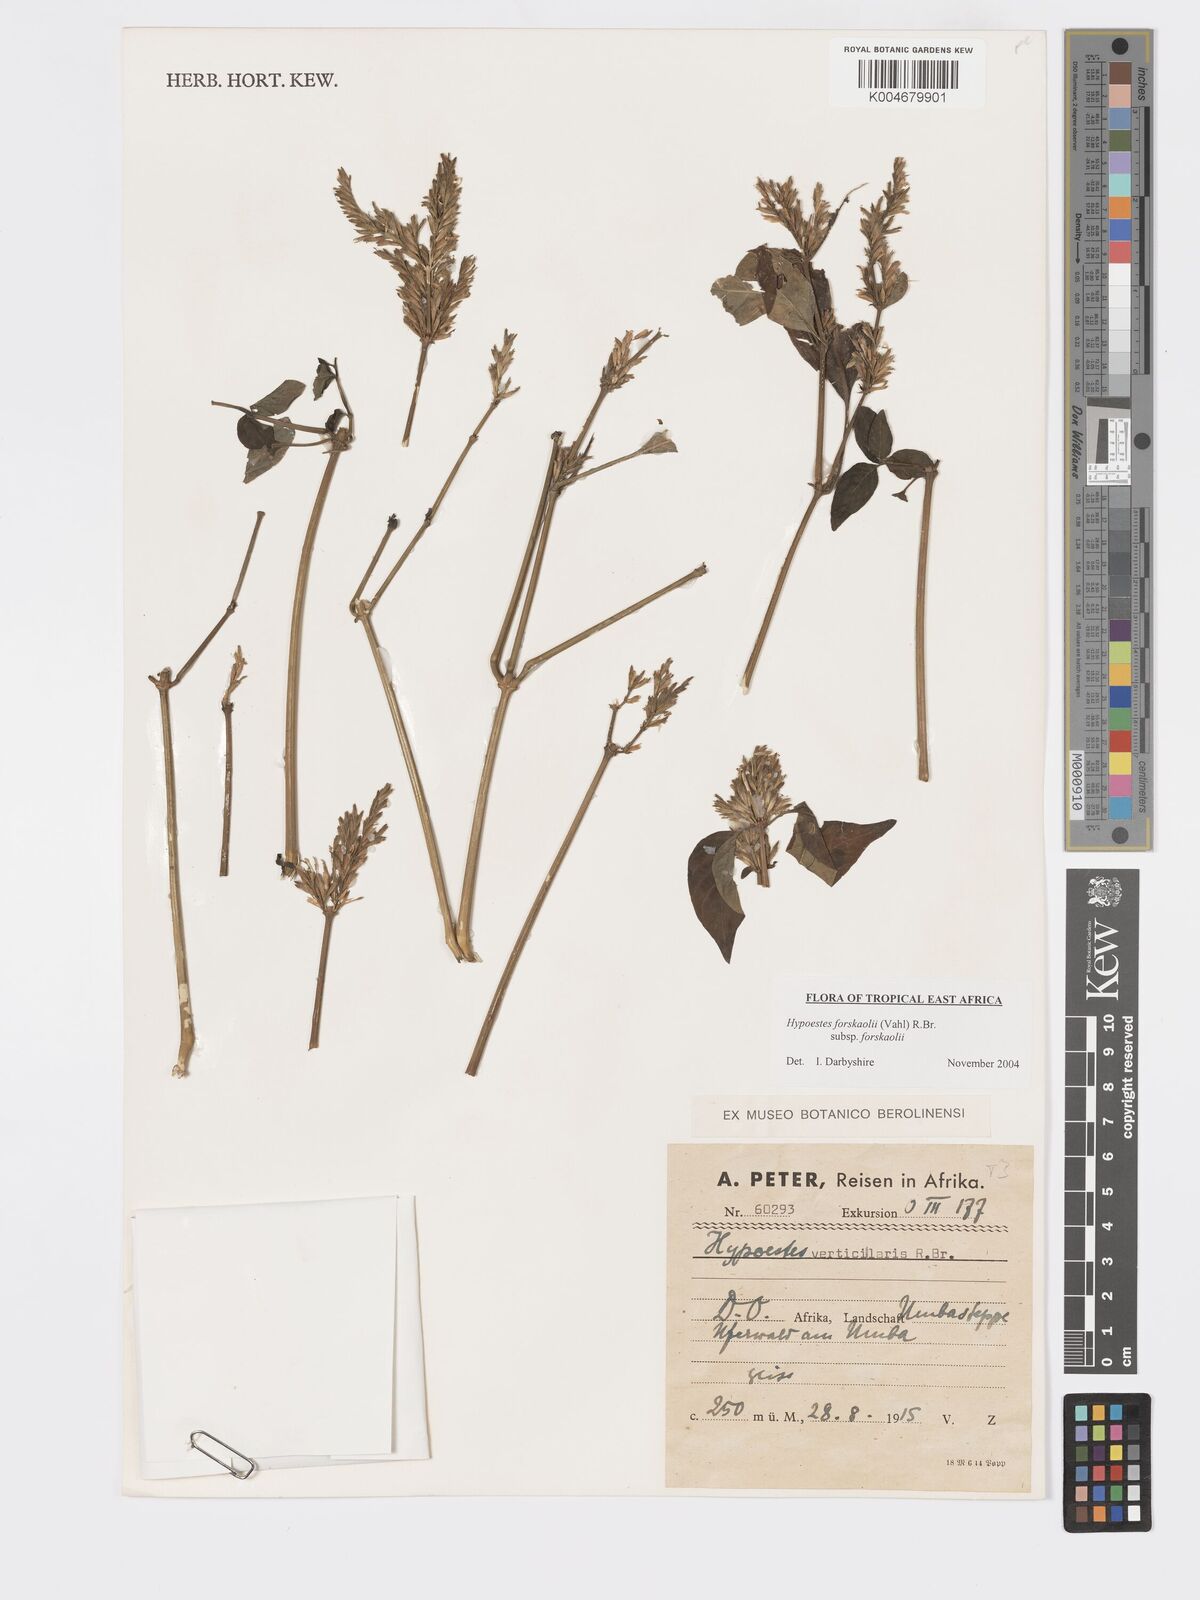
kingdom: Plantae
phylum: Tracheophyta
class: Magnoliopsida
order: Lamiales
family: Acanthaceae
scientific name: Acanthaceae
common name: Acanthaceae
